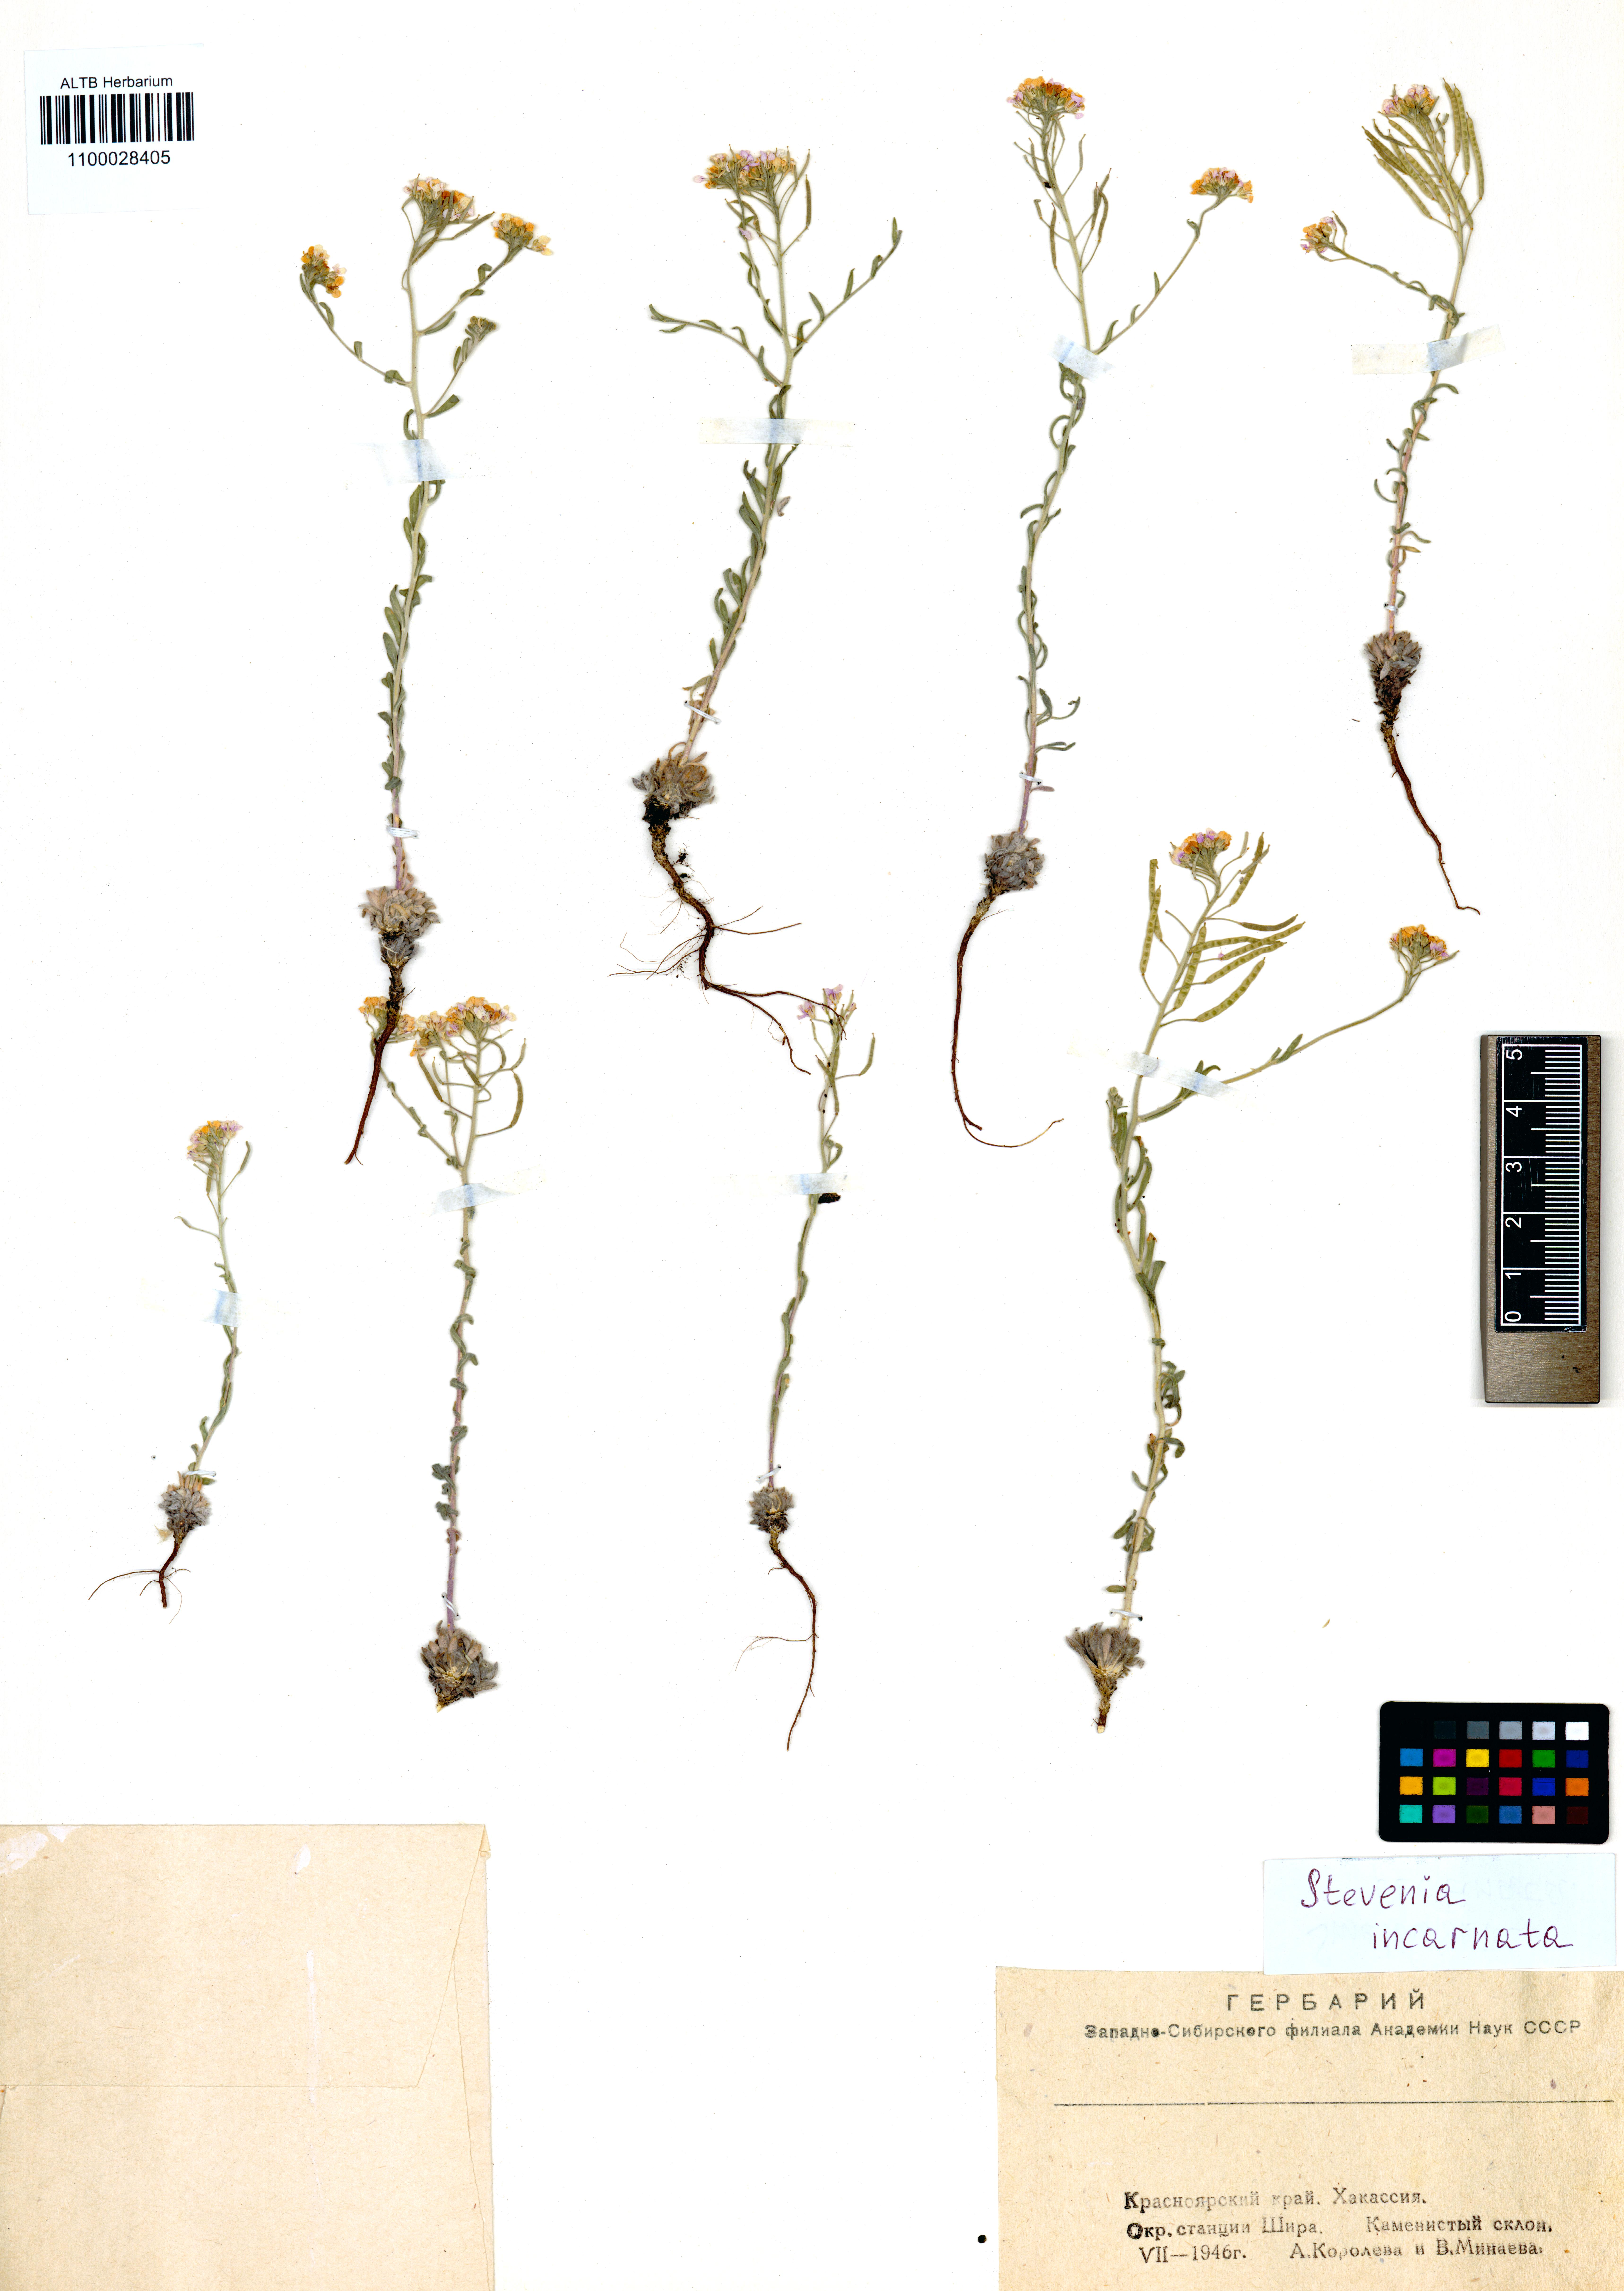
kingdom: Plantae
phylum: Tracheophyta
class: Magnoliopsida
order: Brassicales
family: Brassicaceae
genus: Stevenia
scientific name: Stevenia incarnata
